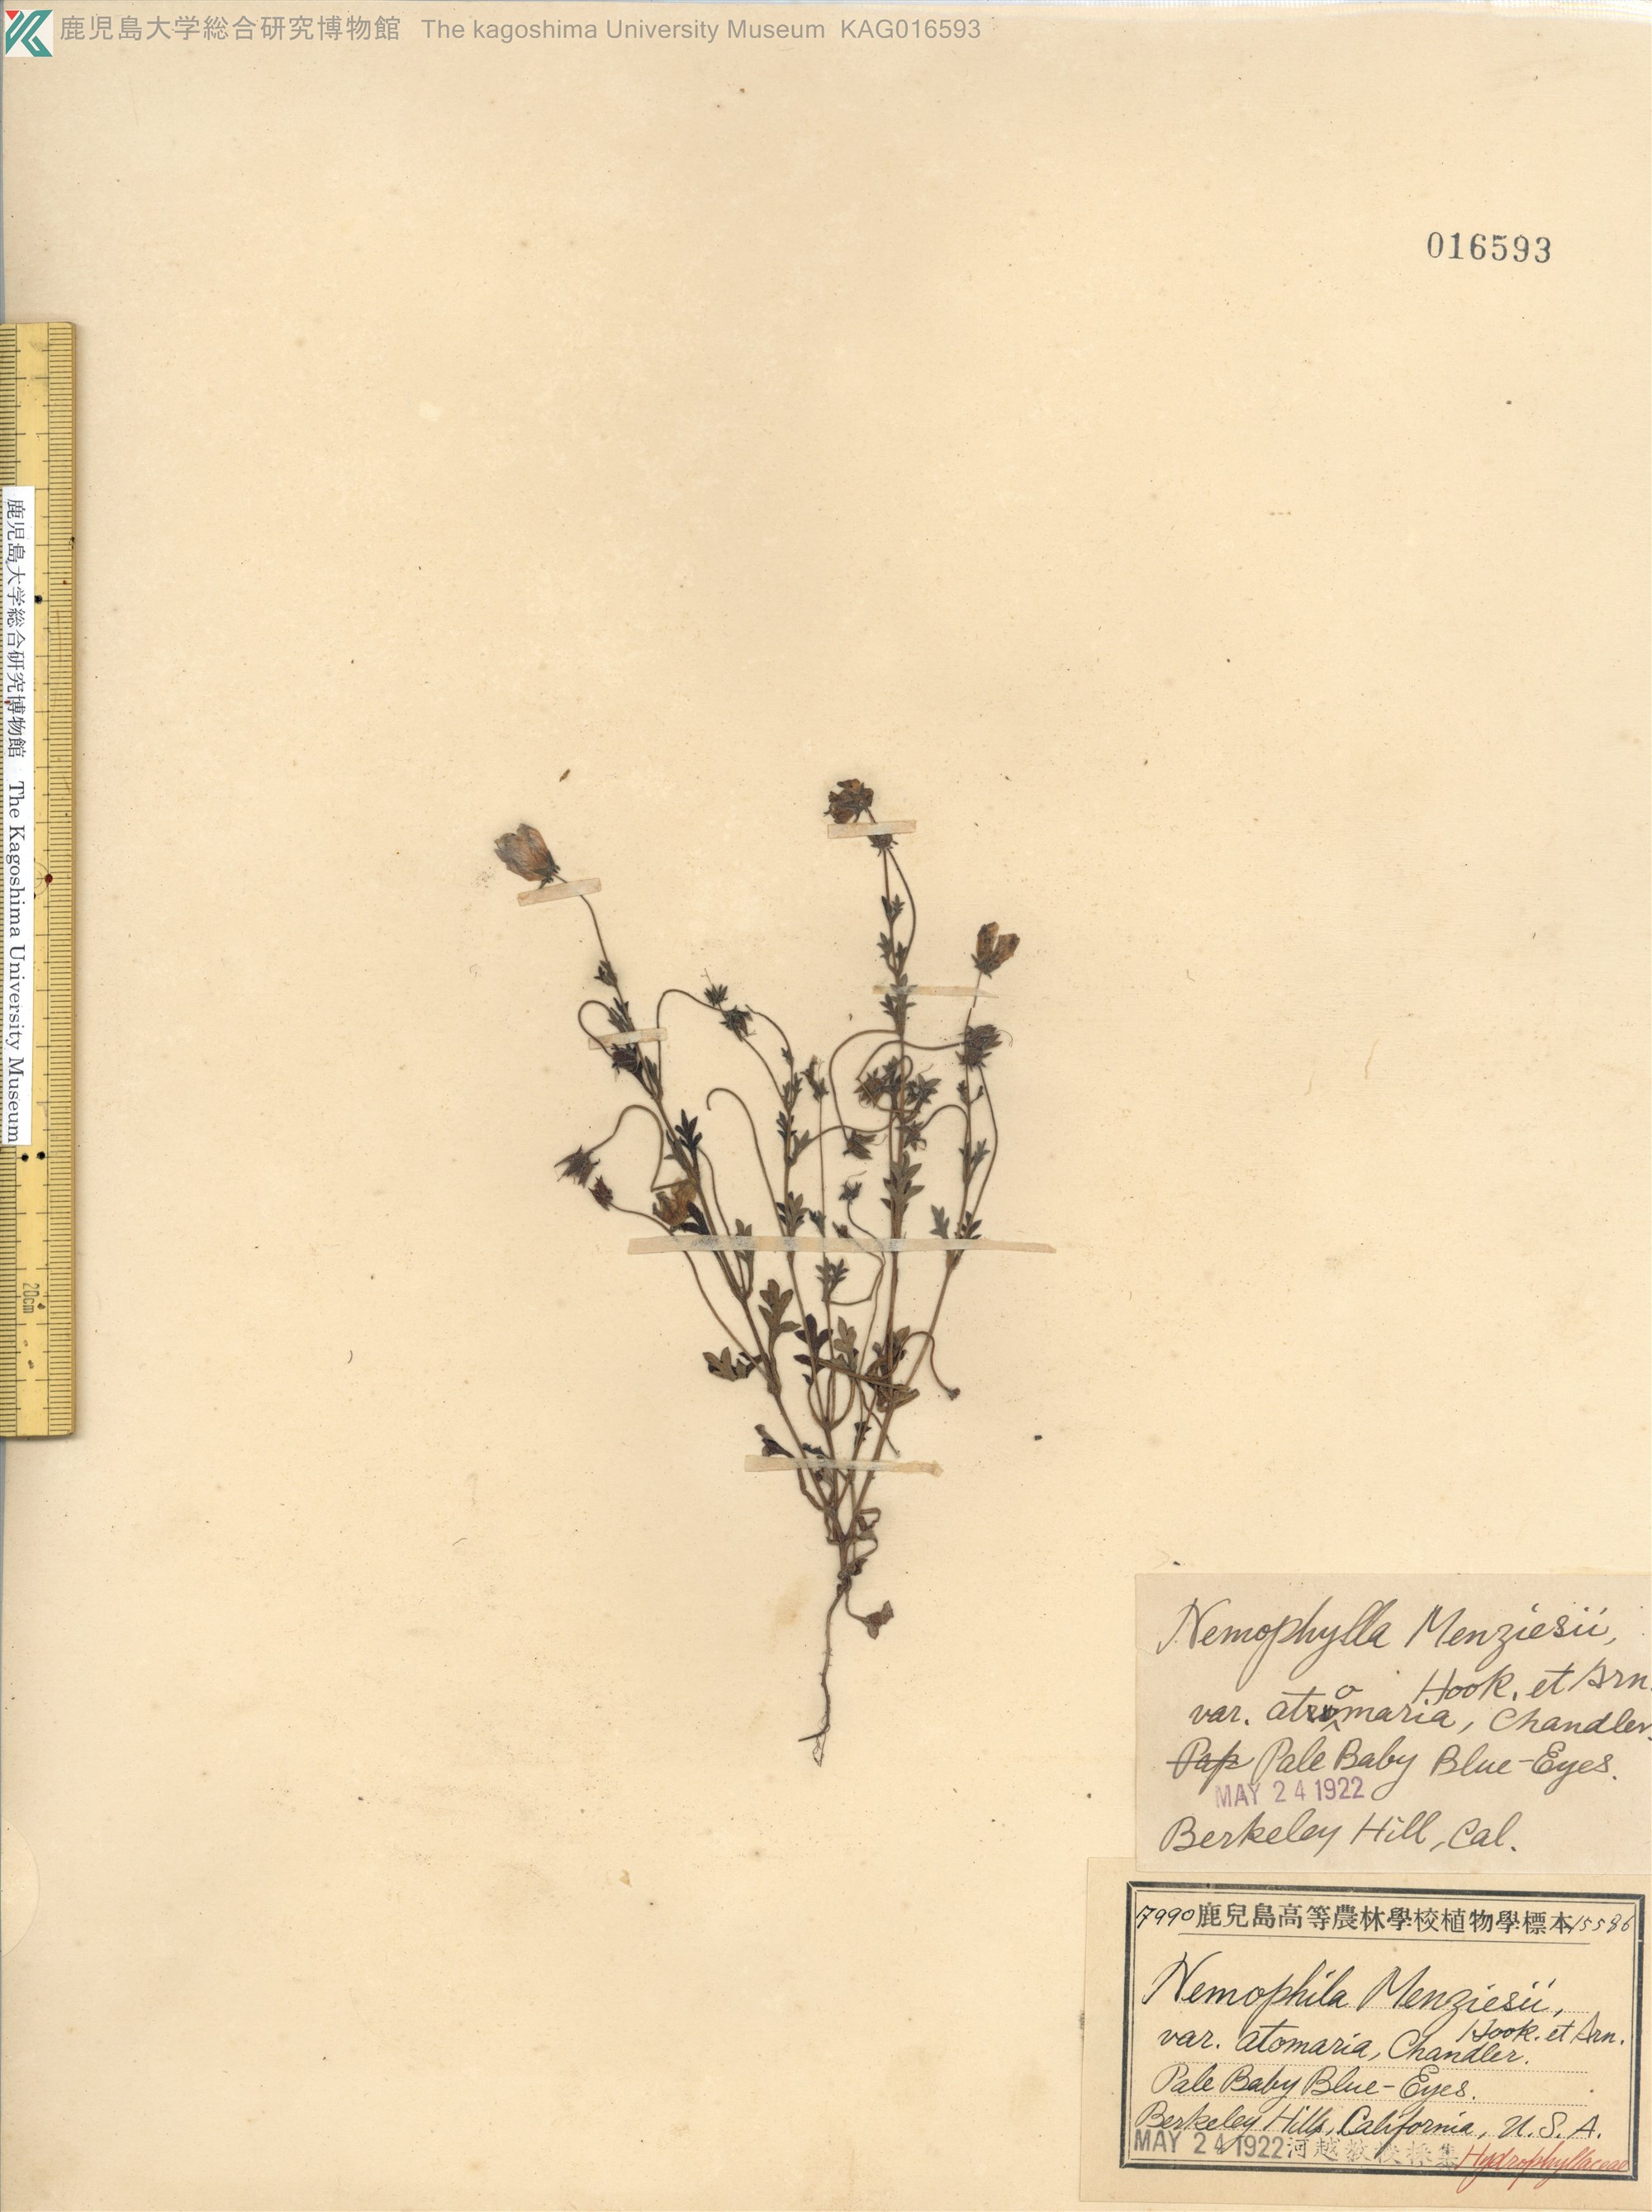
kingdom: Plantae
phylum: Tracheophyta
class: Magnoliopsida
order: Boraginales
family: Hydrophyllaceae
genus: Nemophila
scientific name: Nemophila menziesii
